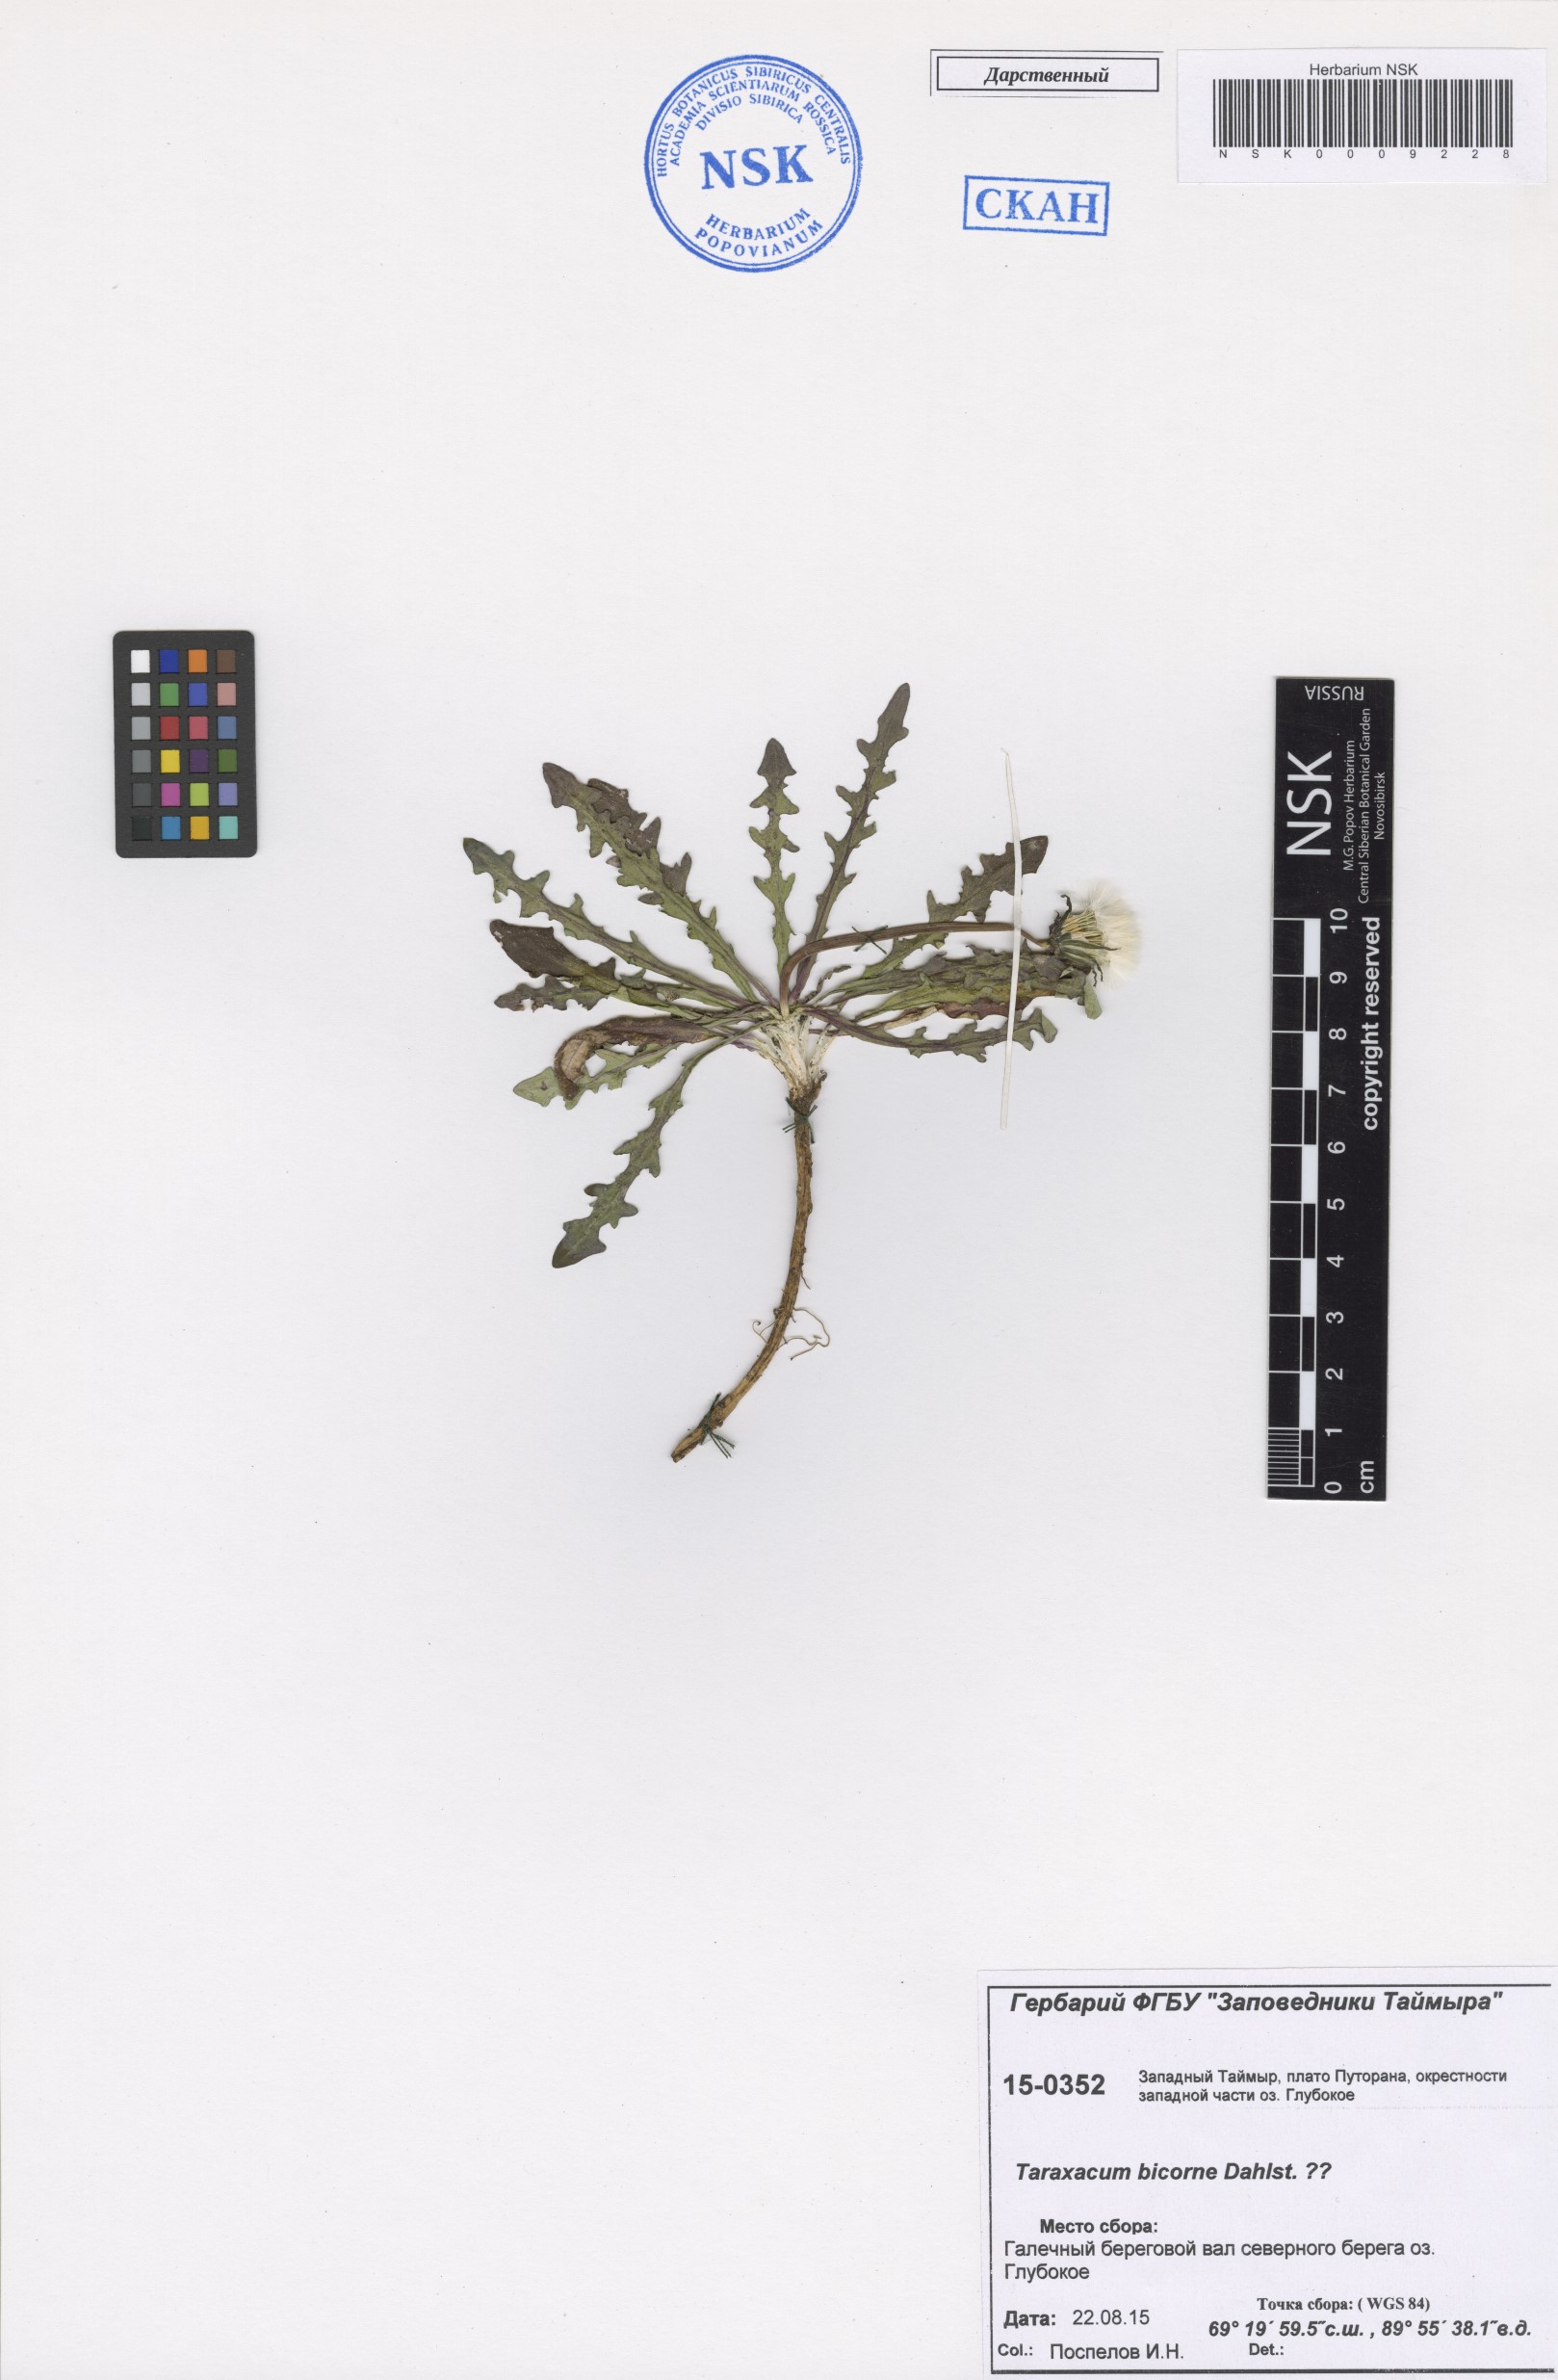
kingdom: Plantae
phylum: Tracheophyta
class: Magnoliopsida
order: Asterales
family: Asteraceae
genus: Taraxacum
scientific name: Taraxacum bicorne
